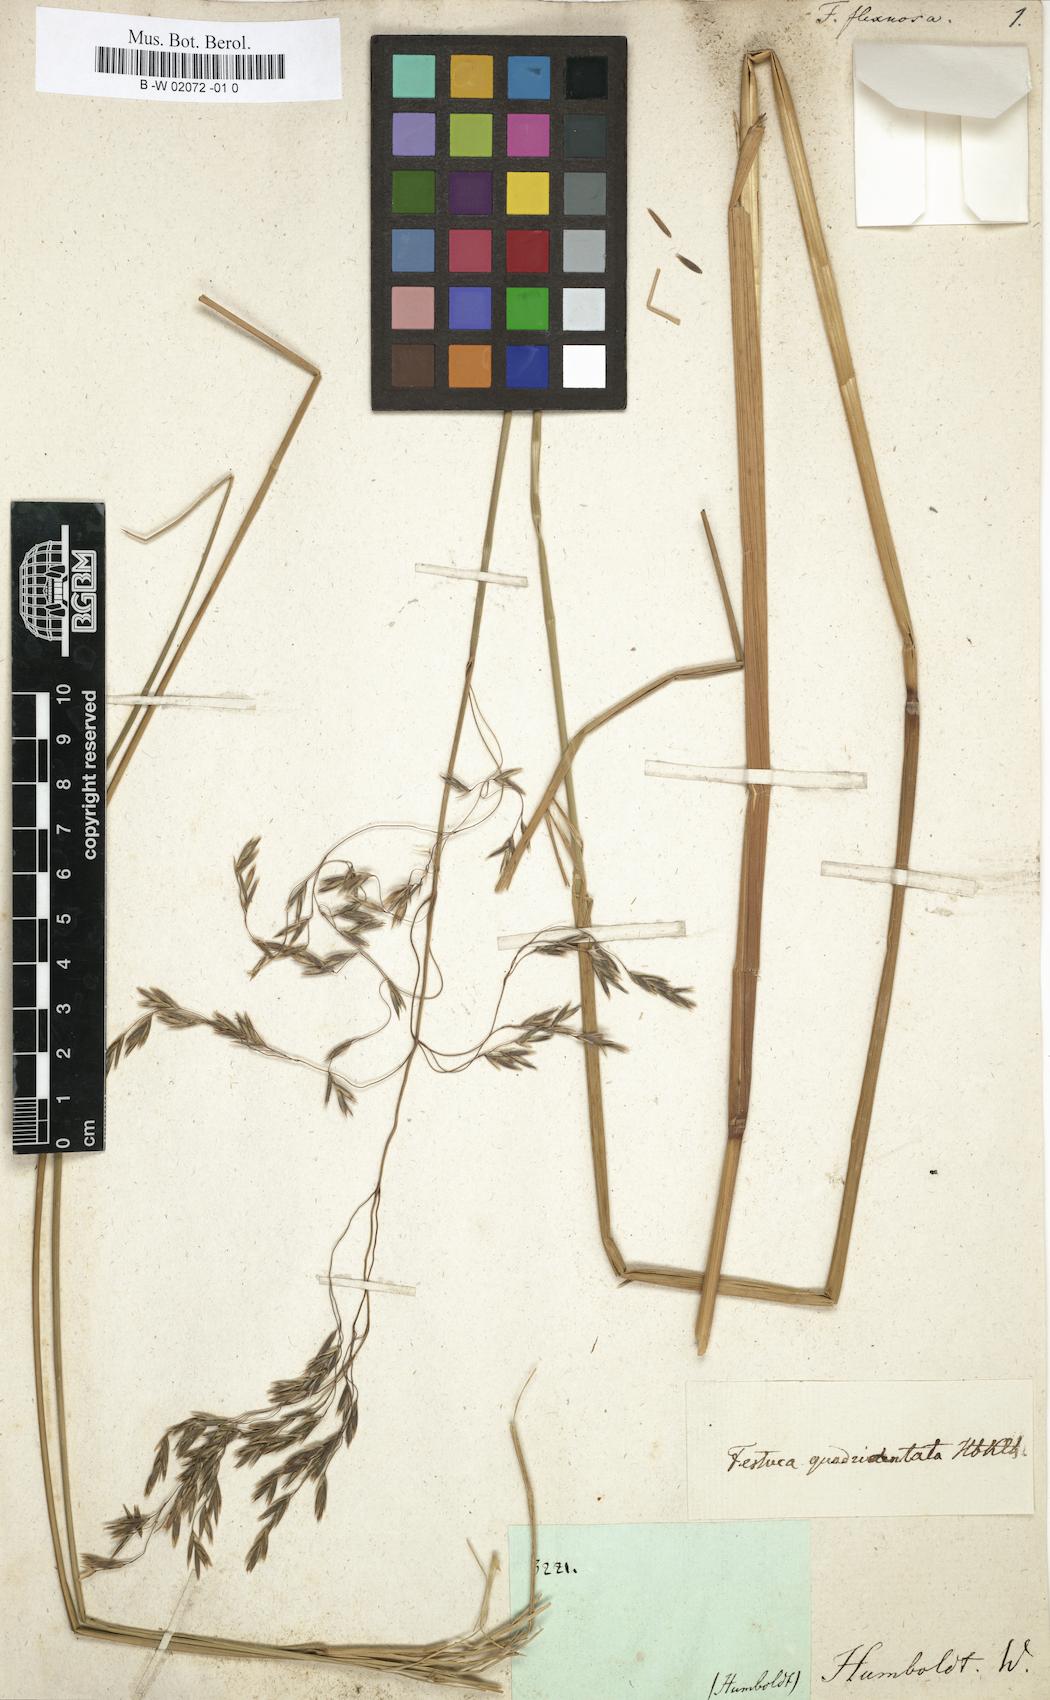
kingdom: Plantae
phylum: Tracheophyta
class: Liliopsida
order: Poales
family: Poaceae
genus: Festuca
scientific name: Festuca quadridentata
